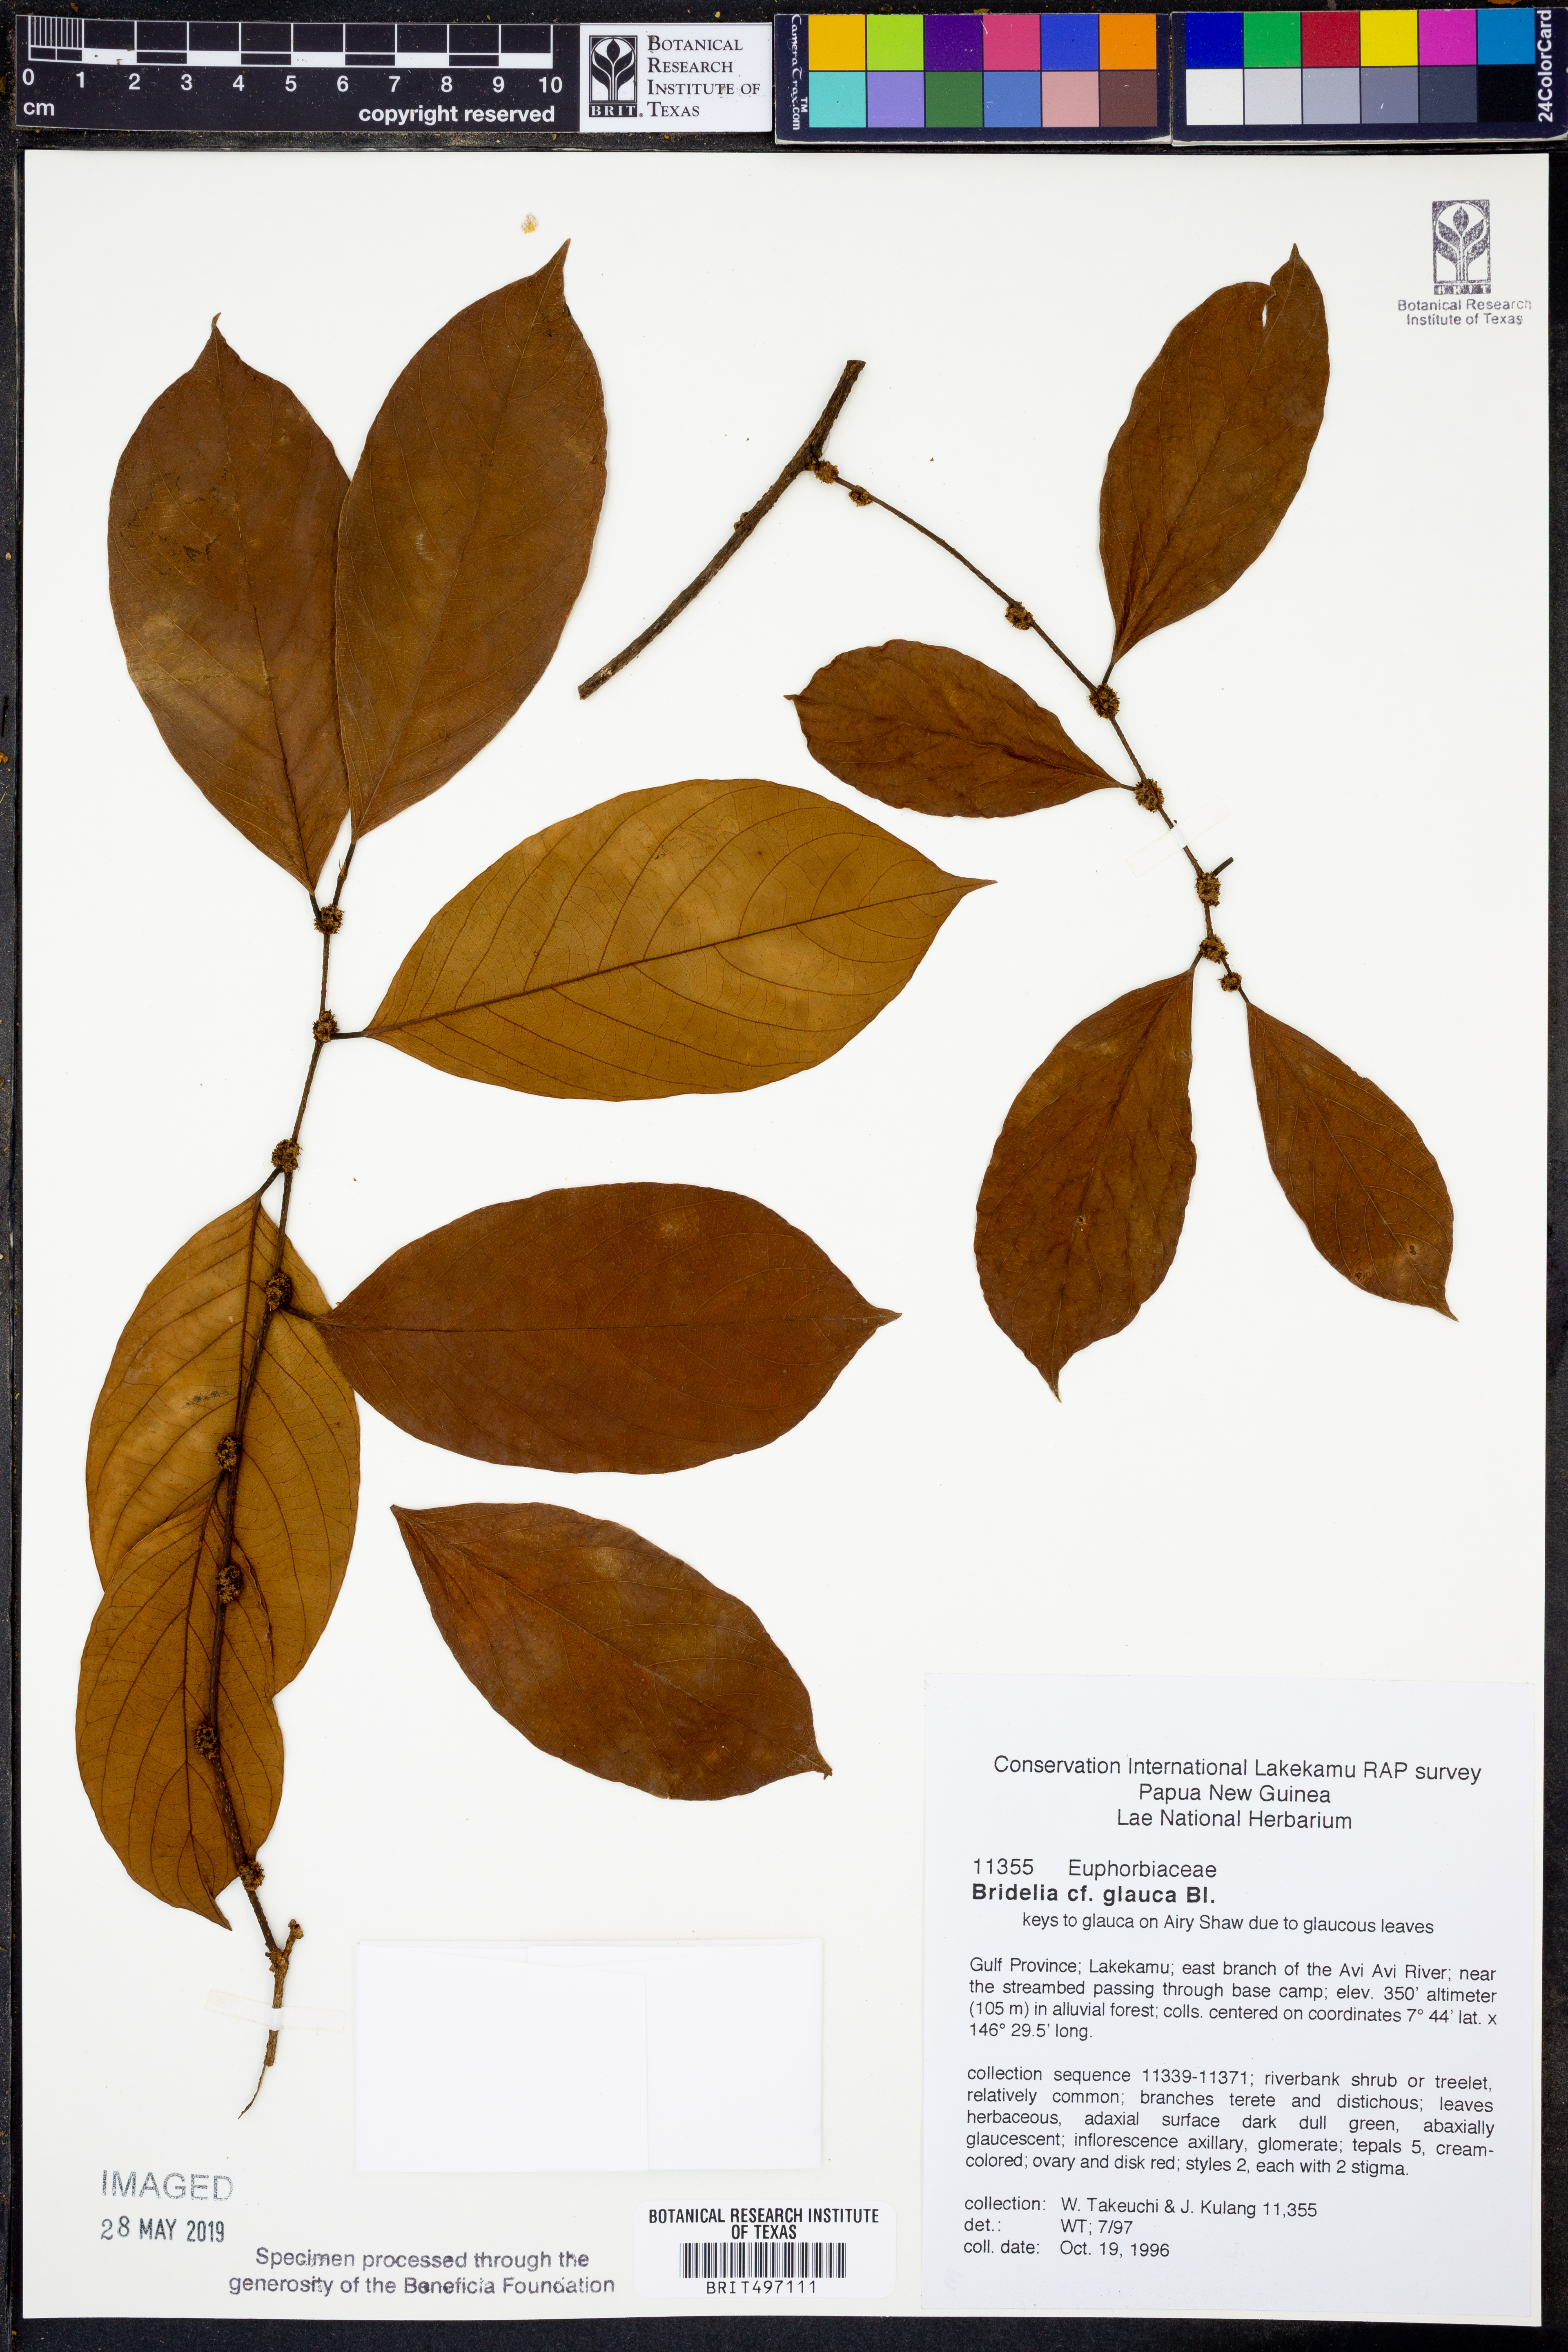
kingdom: Plantae
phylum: Tracheophyta
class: Magnoliopsida
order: Malpighiales
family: Phyllanthaceae
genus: Glochidion
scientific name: Glochidion rubrum
